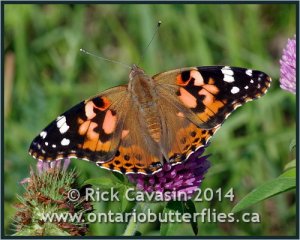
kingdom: Animalia
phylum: Arthropoda
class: Insecta
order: Lepidoptera
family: Nymphalidae
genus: Vanessa
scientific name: Vanessa cardui
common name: Painted Lady
